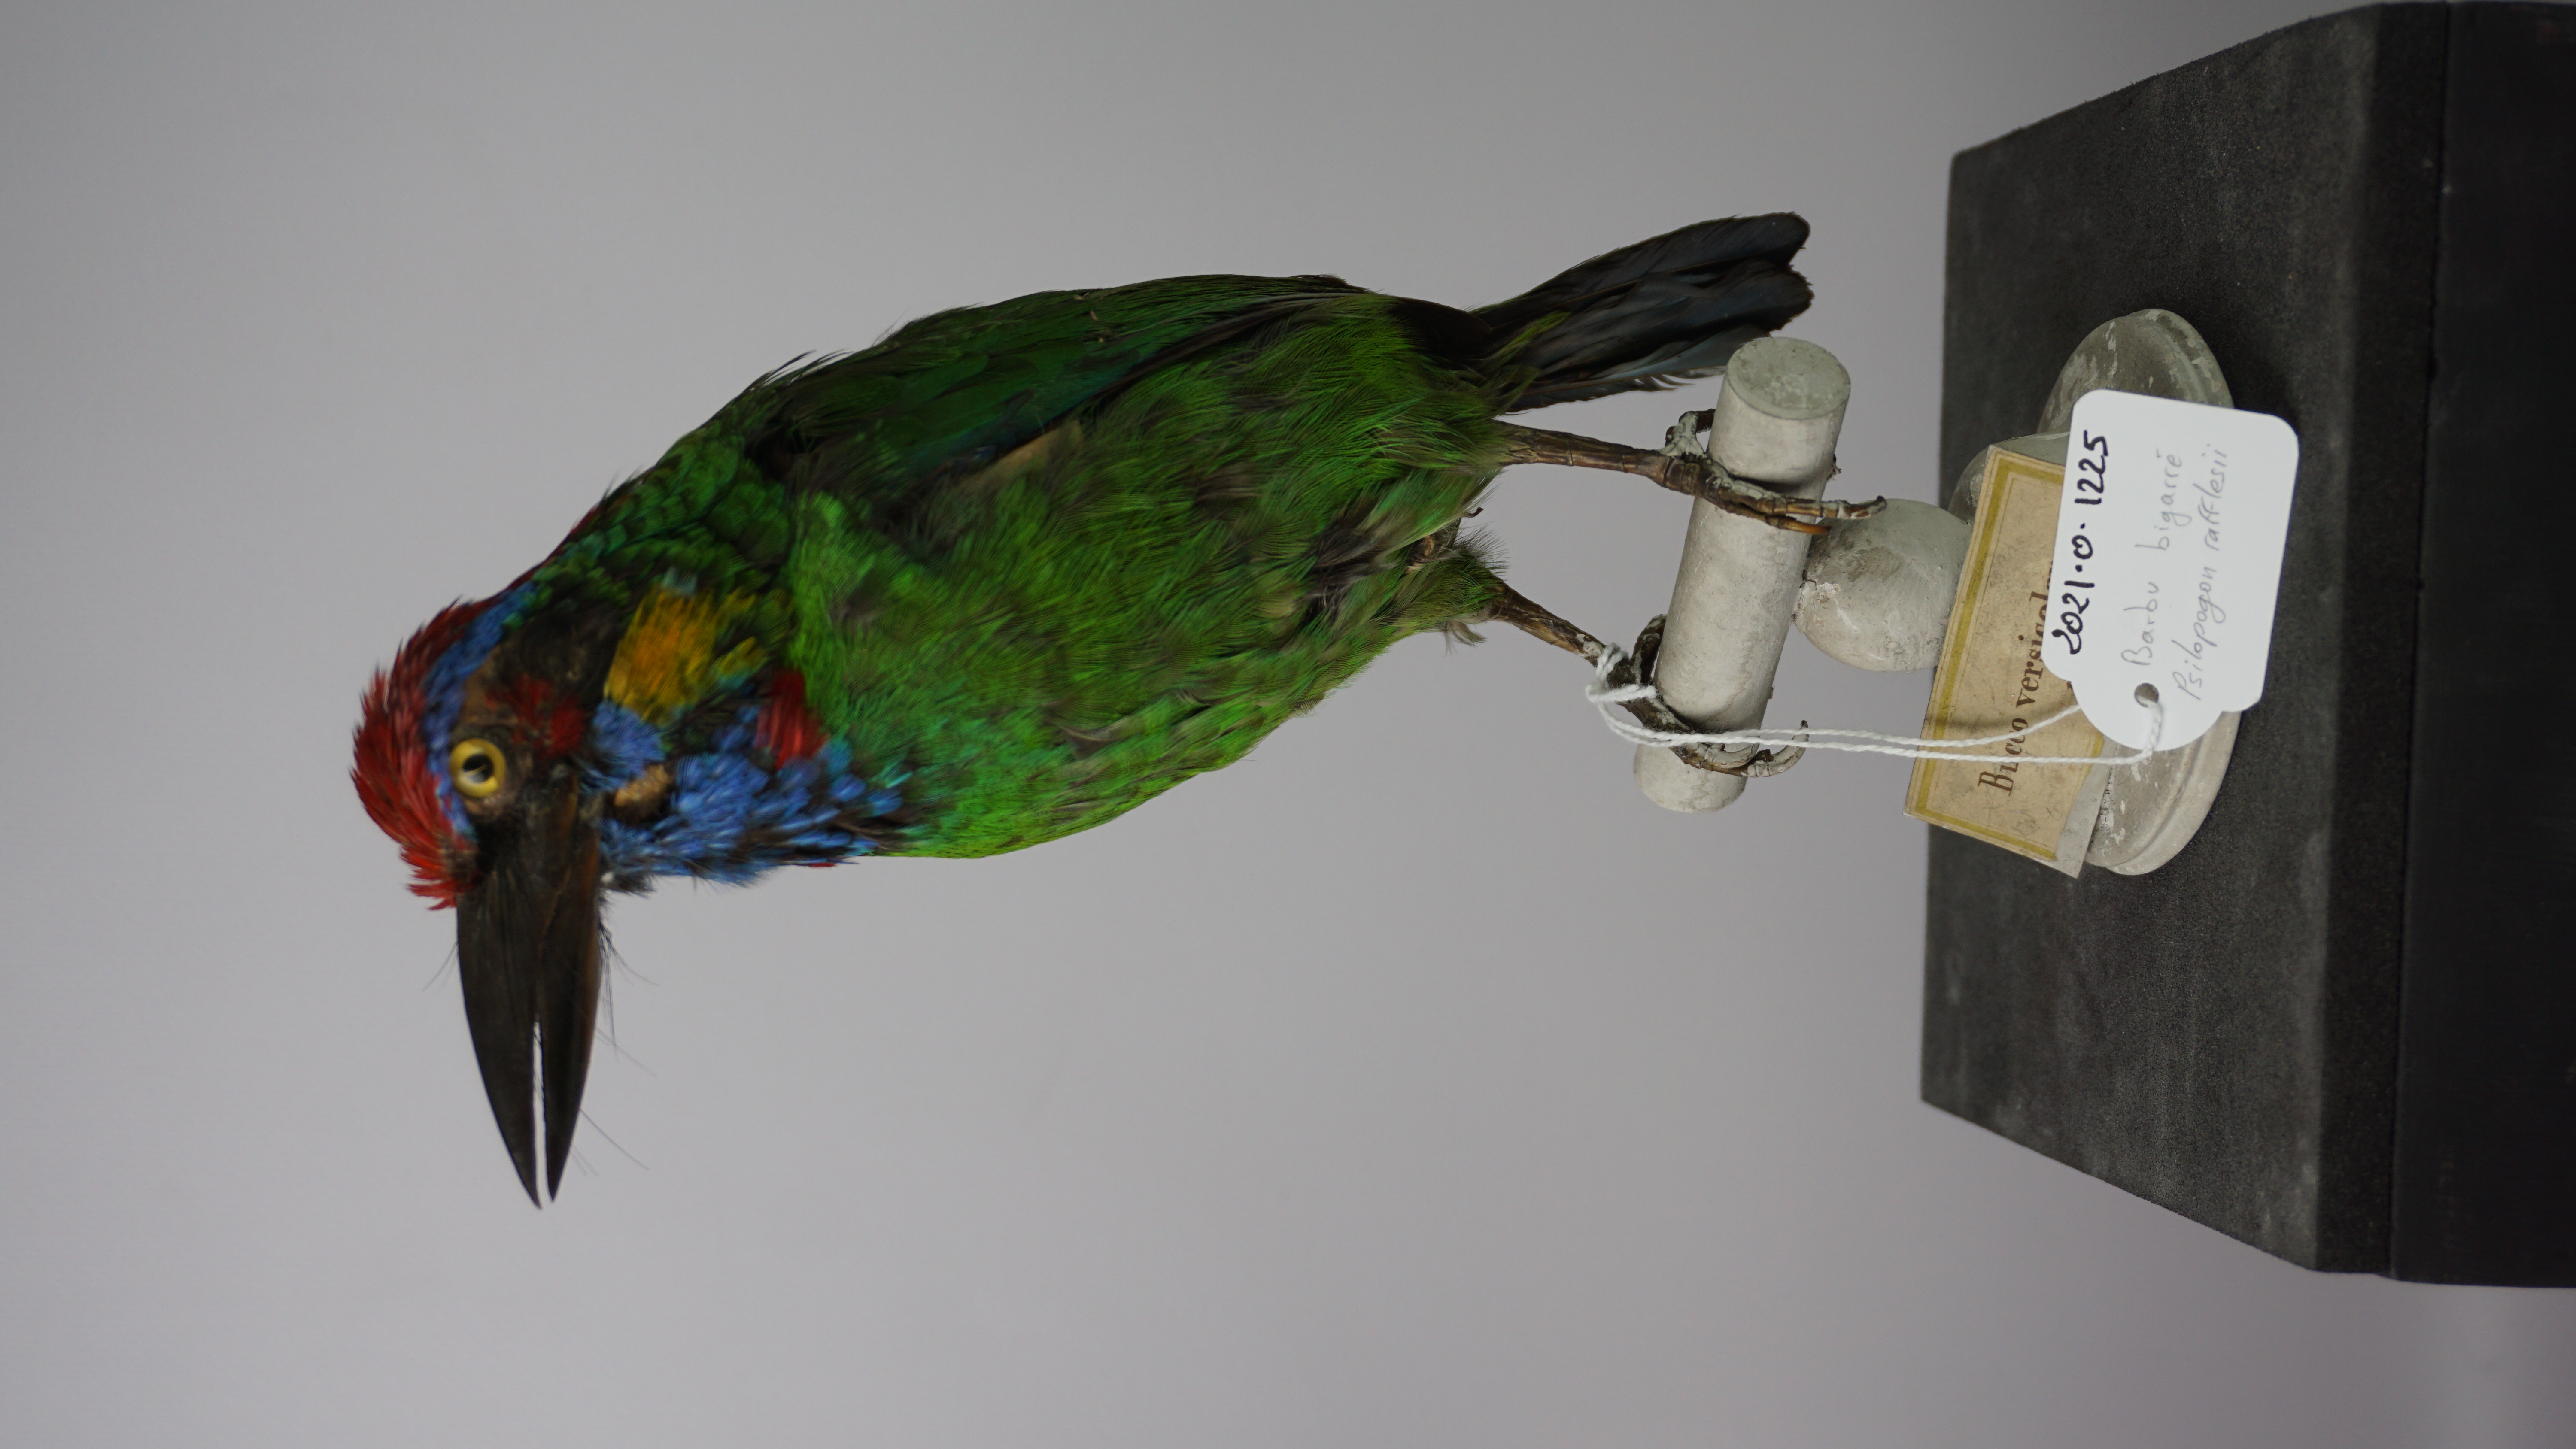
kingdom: Animalia
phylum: Chordata
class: Aves
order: Piciformes
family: Megalaimidae
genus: Psilopogon
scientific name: Psilopogon rafflesii
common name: Red-crowned barbet
